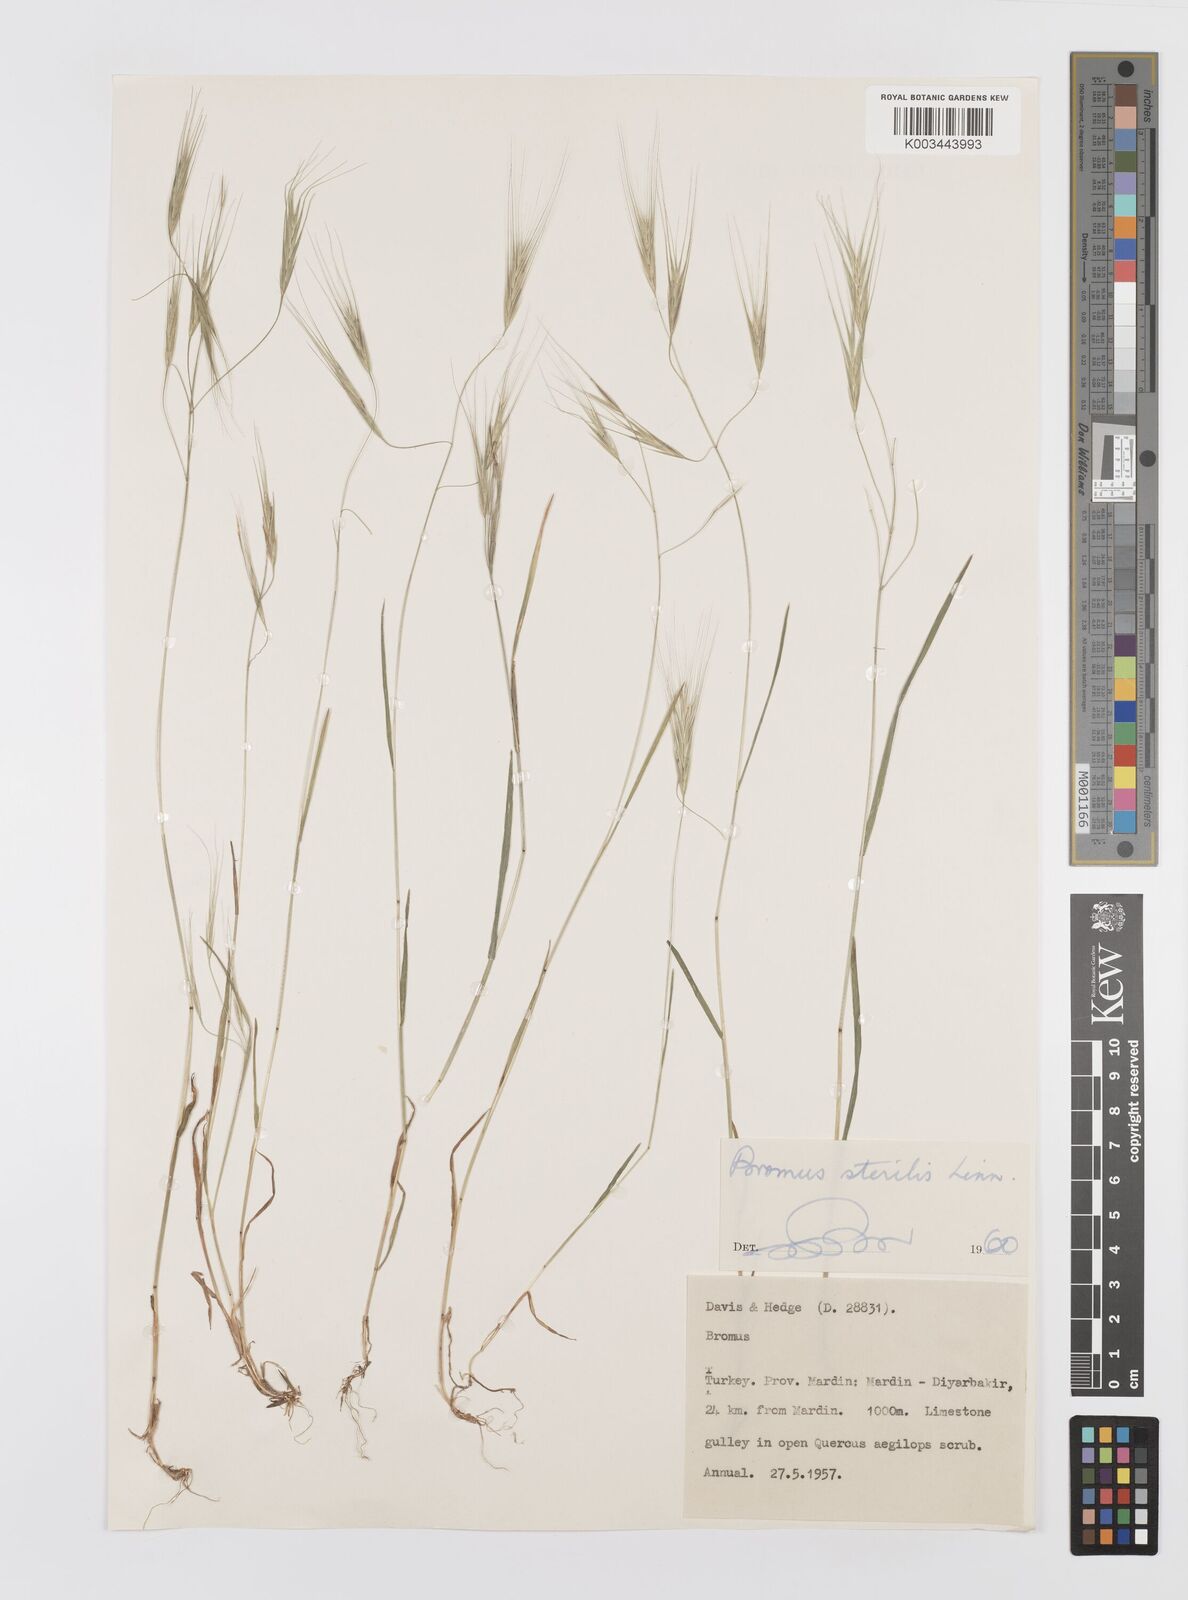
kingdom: Plantae
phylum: Tracheophyta
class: Liliopsida
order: Poales
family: Poaceae
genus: Bromus
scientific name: Bromus sterilis
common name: Poverty brome
